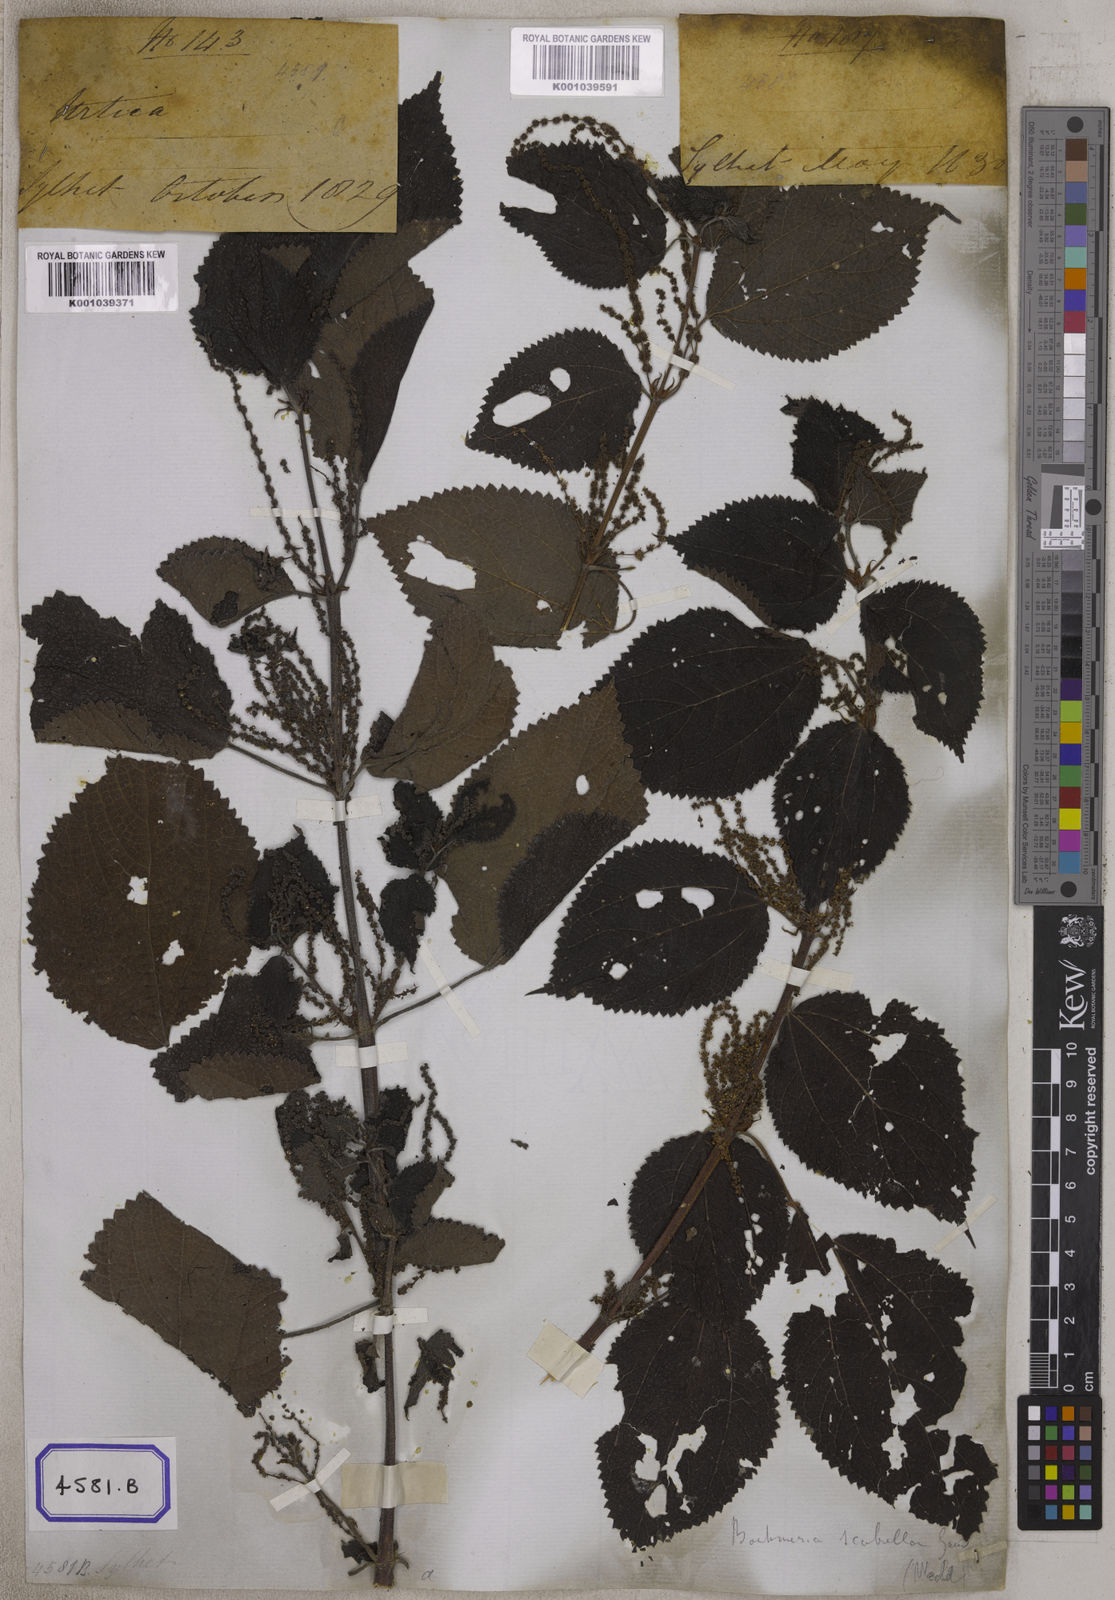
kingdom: Plantae
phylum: Tracheophyta
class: Magnoliopsida
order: Rosales
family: Urticaceae
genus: Boehmeria
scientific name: Boehmeria virgata
